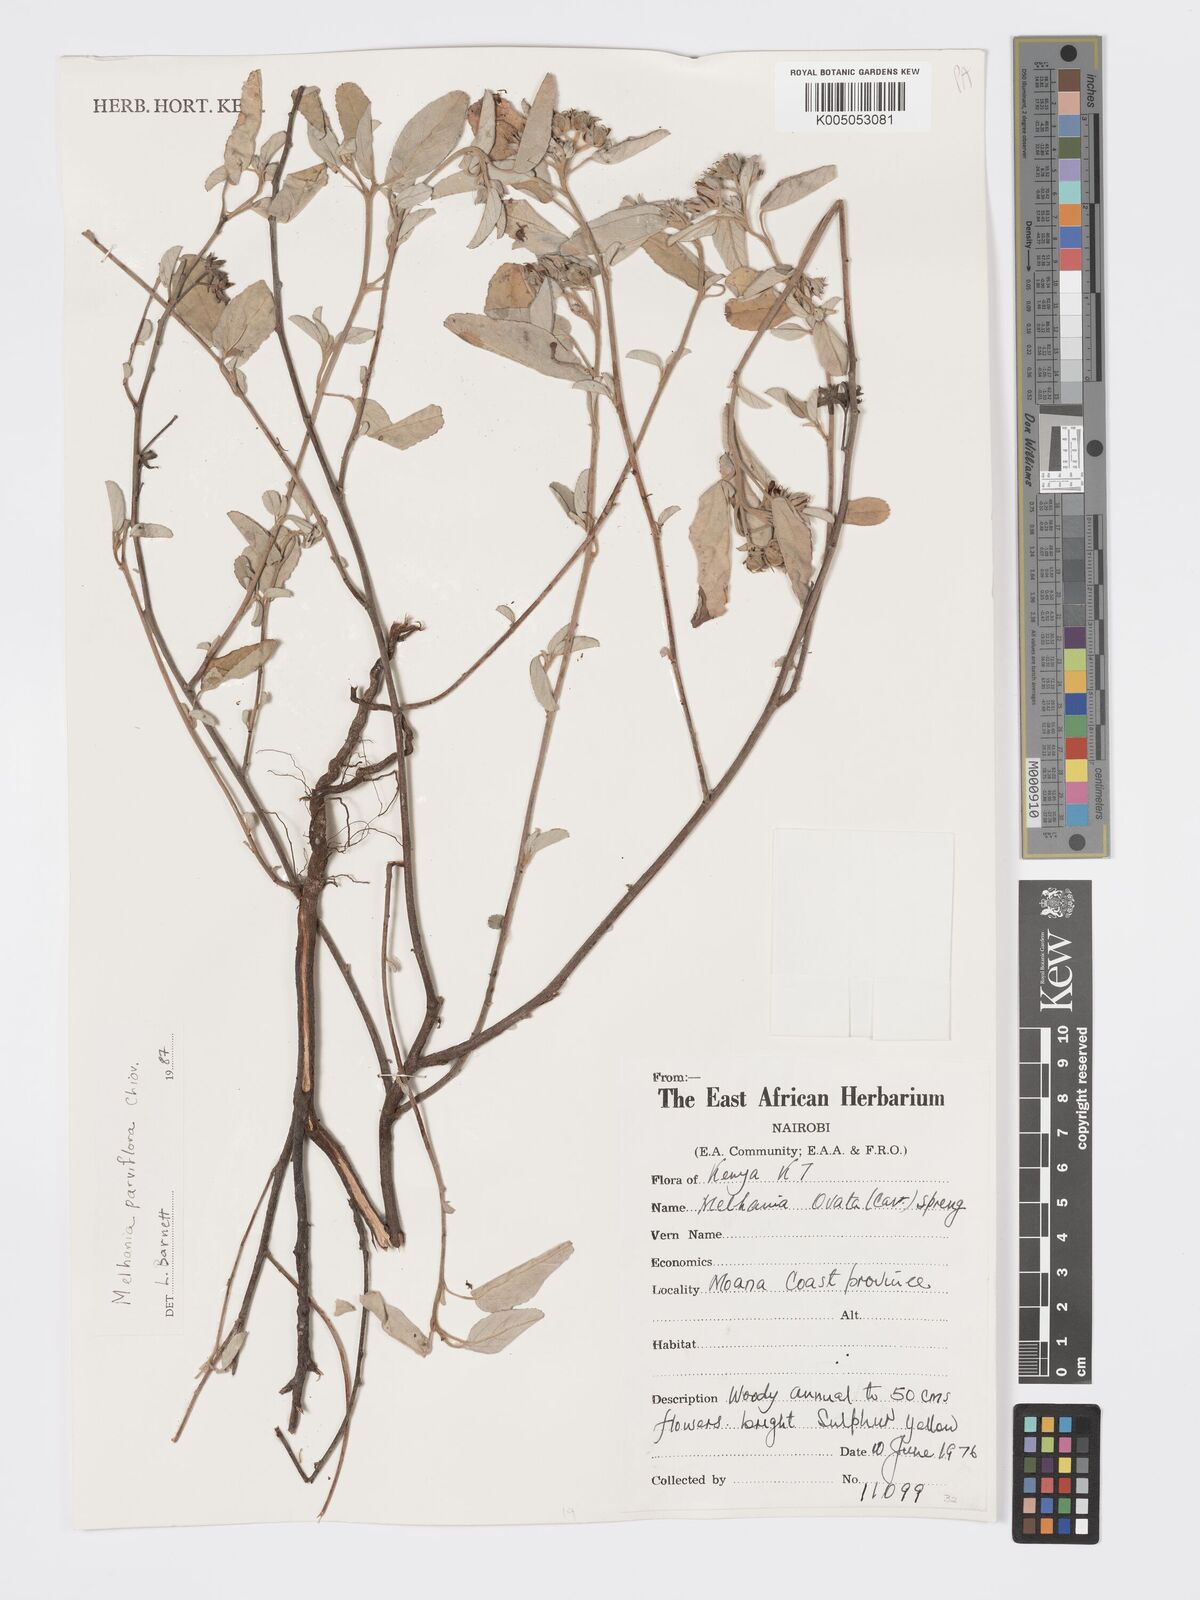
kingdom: Plantae
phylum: Tracheophyta
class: Magnoliopsida
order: Malvales
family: Malvaceae
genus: Melhania
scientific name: Melhania parviflora
